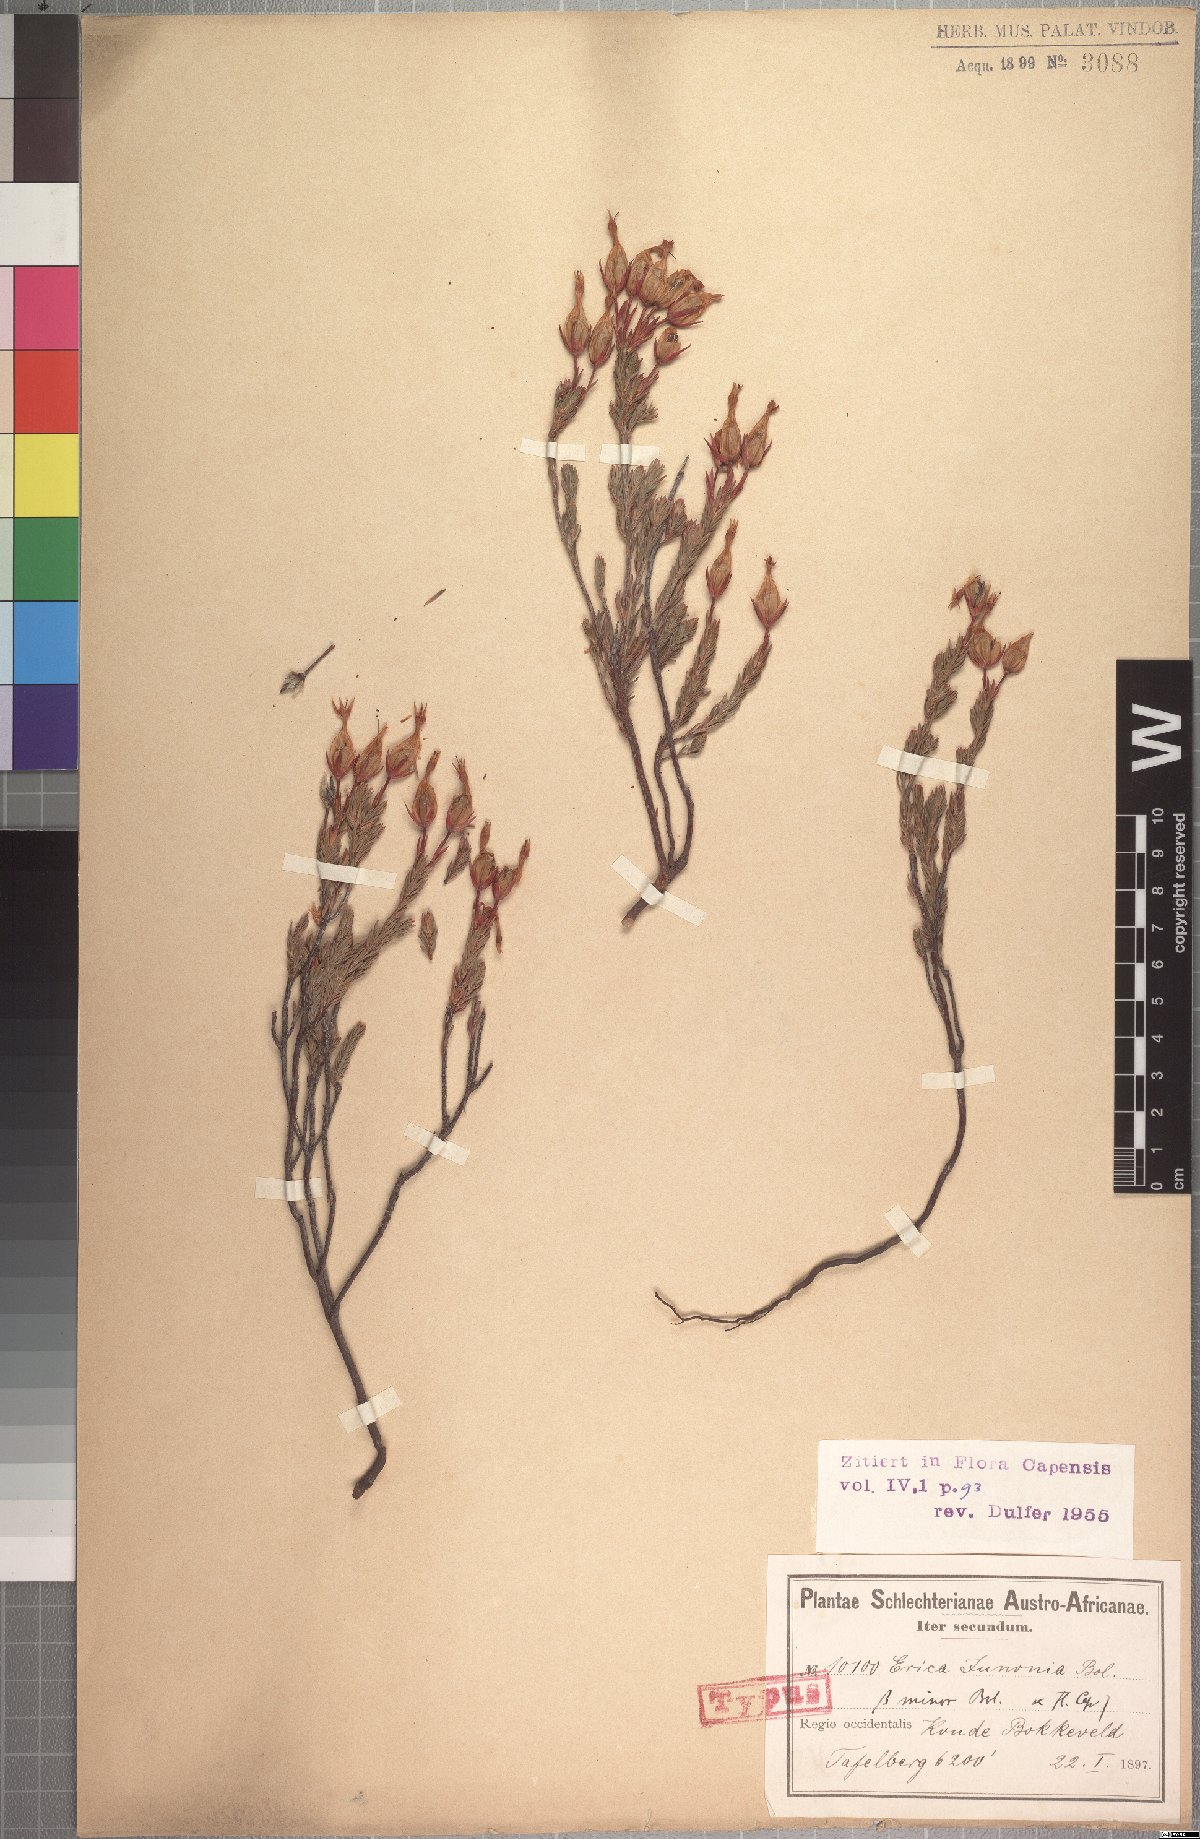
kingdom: Plantae
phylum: Tracheophyta
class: Magnoliopsida
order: Ericales
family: Ericaceae
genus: Erica
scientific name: Erica junonia
